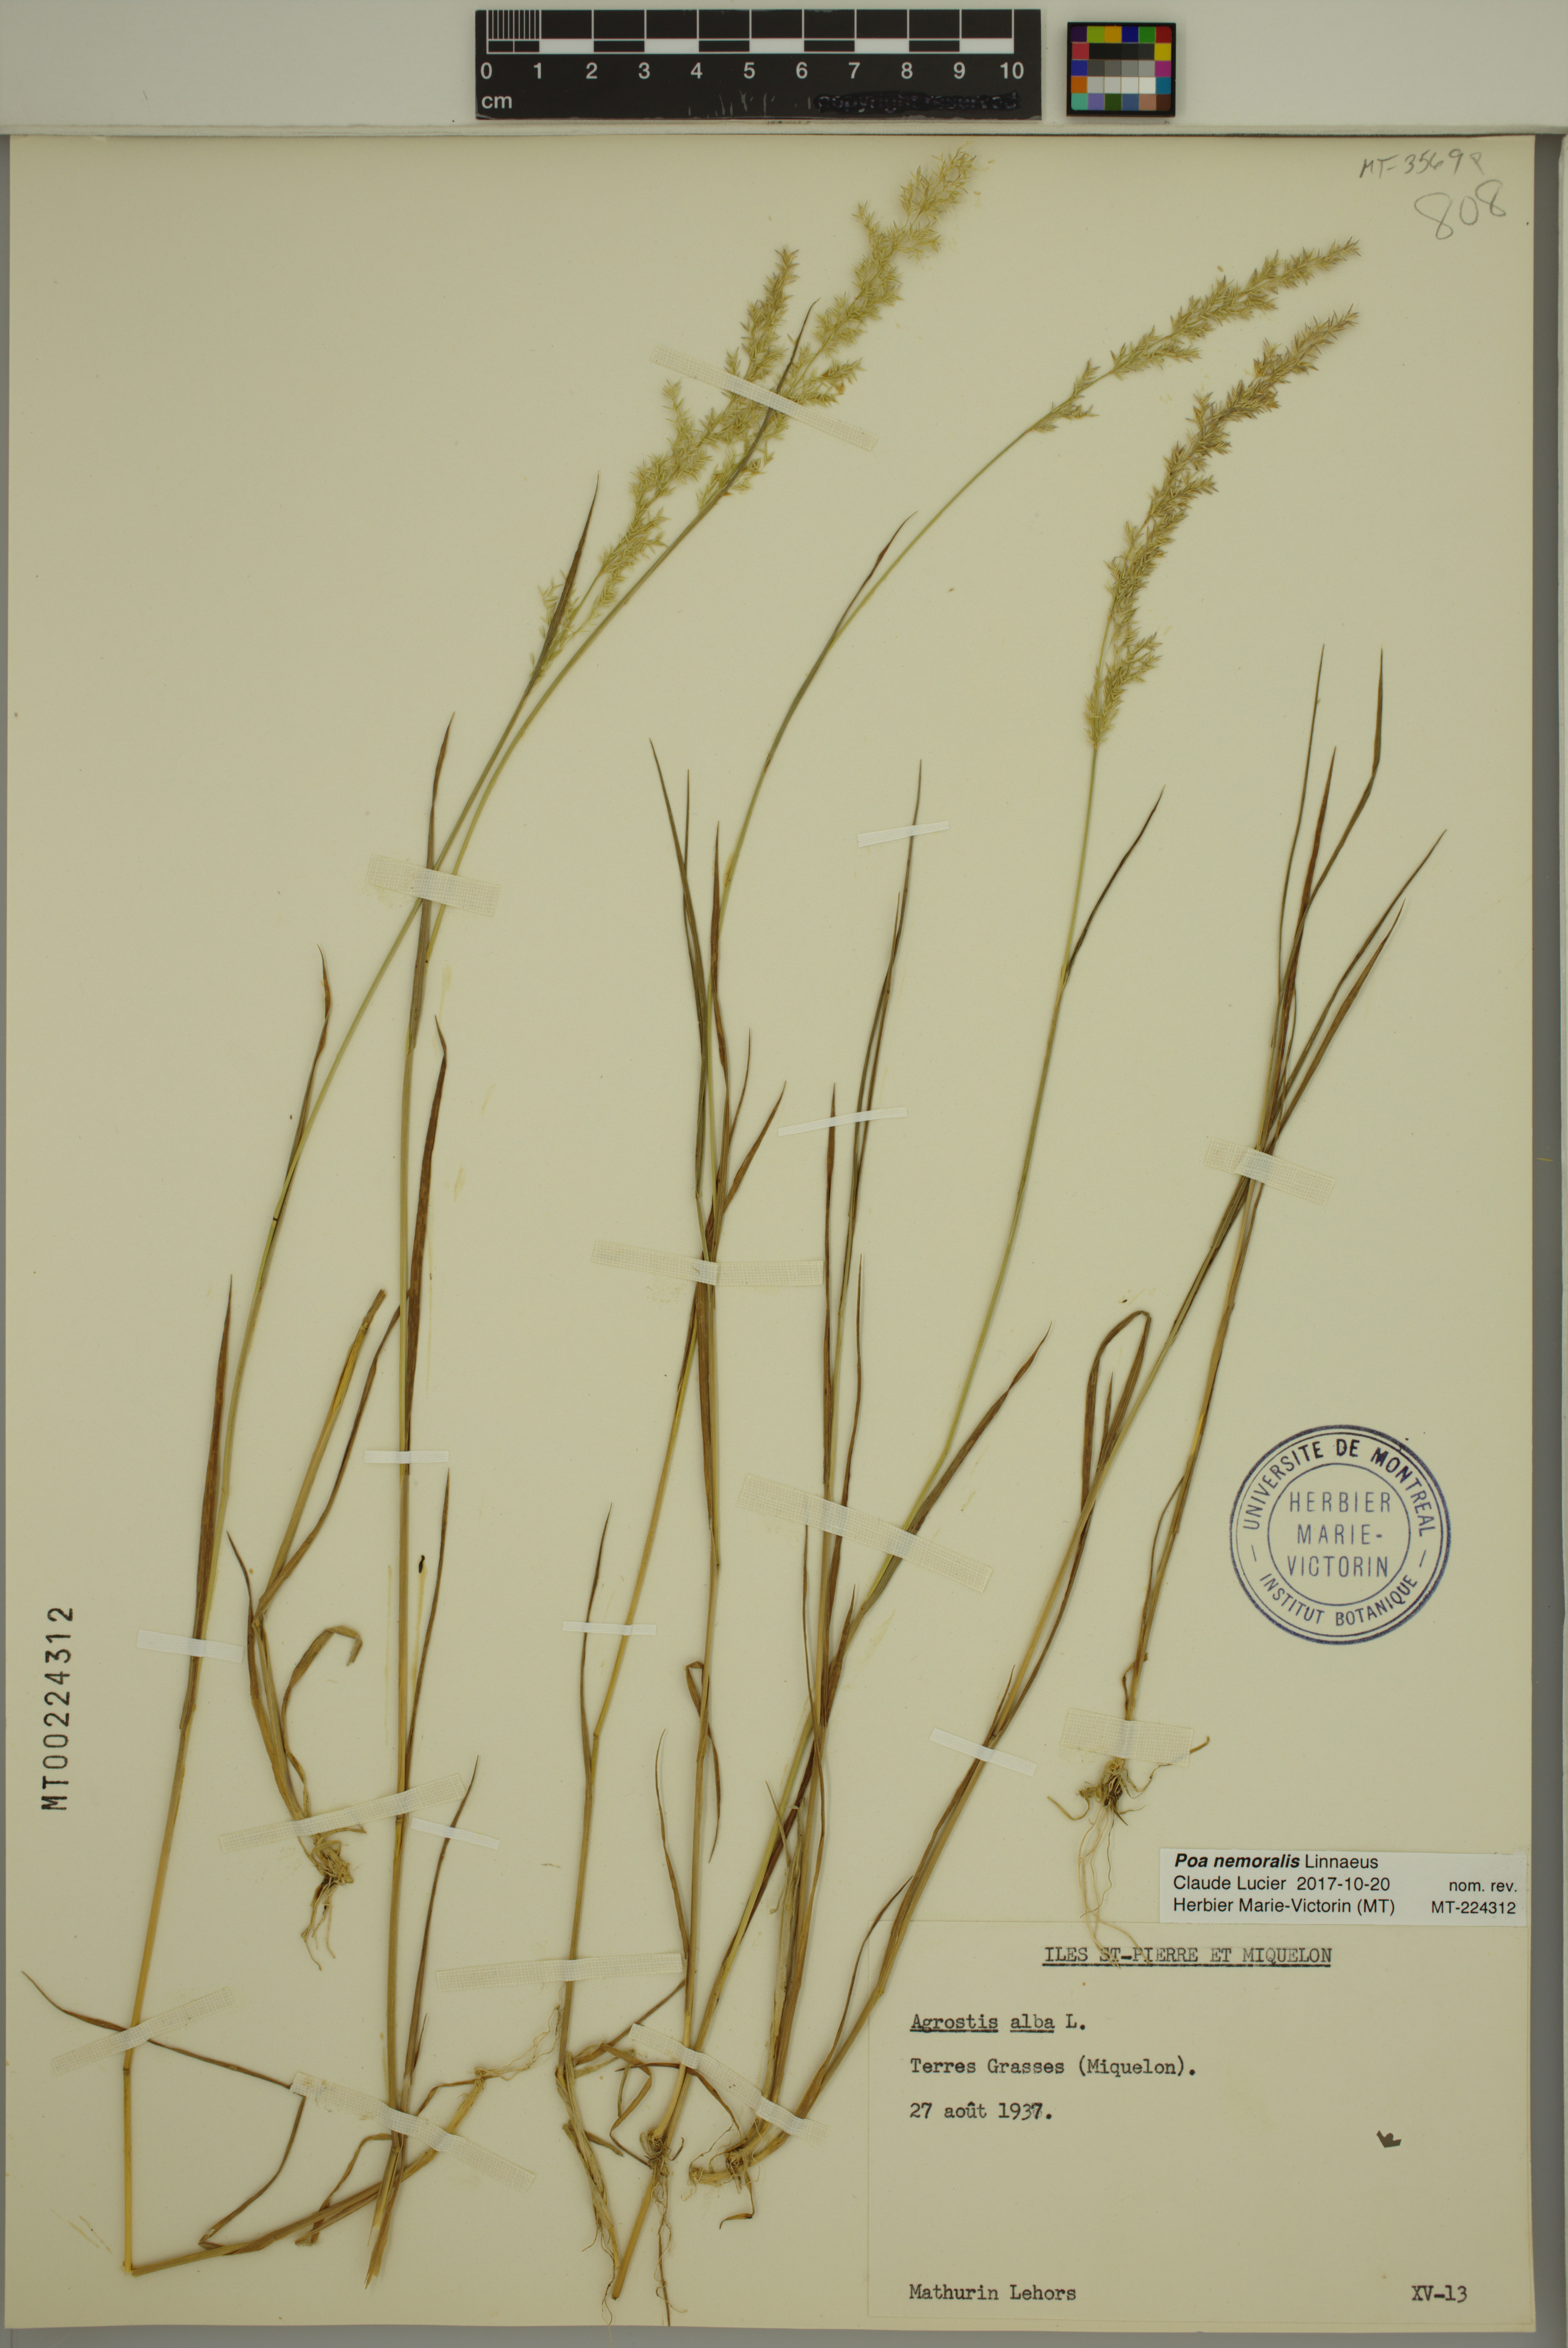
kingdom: Plantae
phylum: Tracheophyta
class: Liliopsida
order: Poales
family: Poaceae
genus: Poa
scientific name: Poa nemoralis
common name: Wood bluegrass
